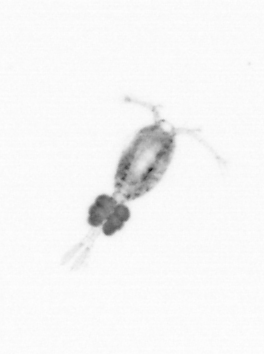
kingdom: Animalia
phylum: Arthropoda
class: Copepoda
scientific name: Copepoda
